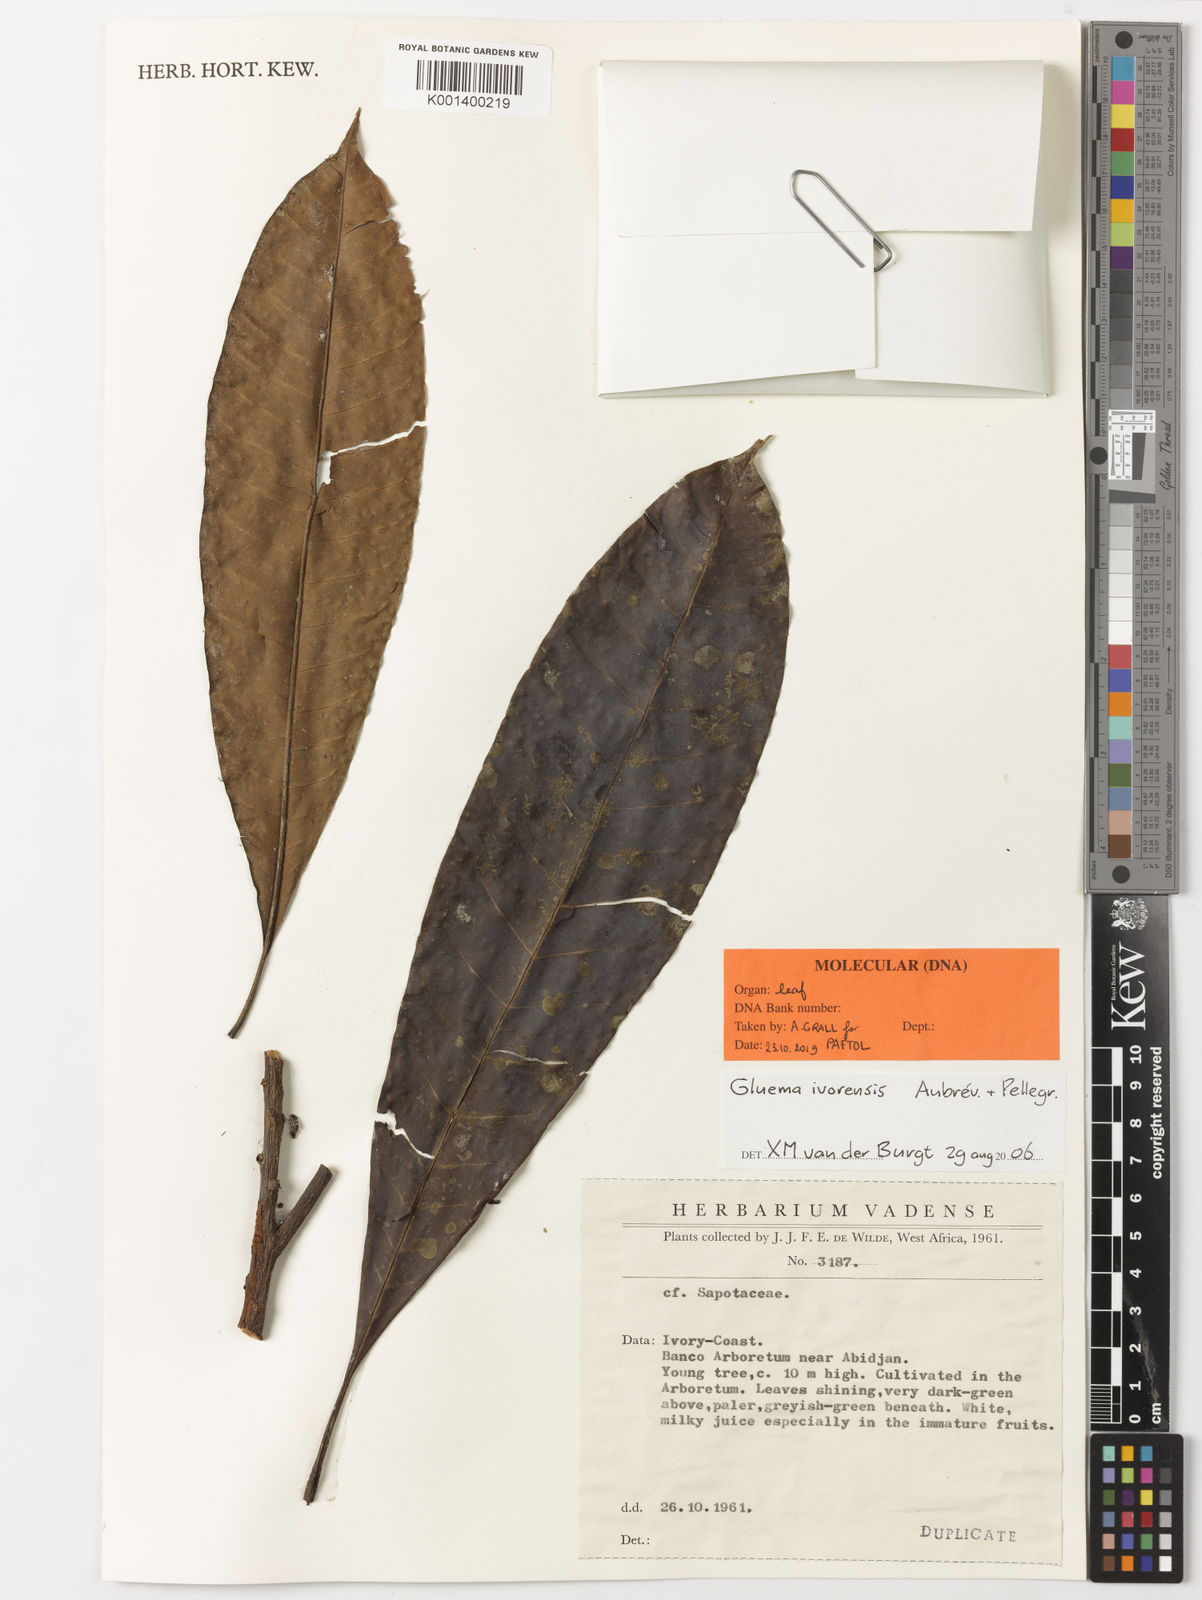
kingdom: Plantae
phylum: Tracheophyta
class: Magnoliopsida
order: Ericales
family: Sapotaceae
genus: Gluema
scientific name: Gluema
